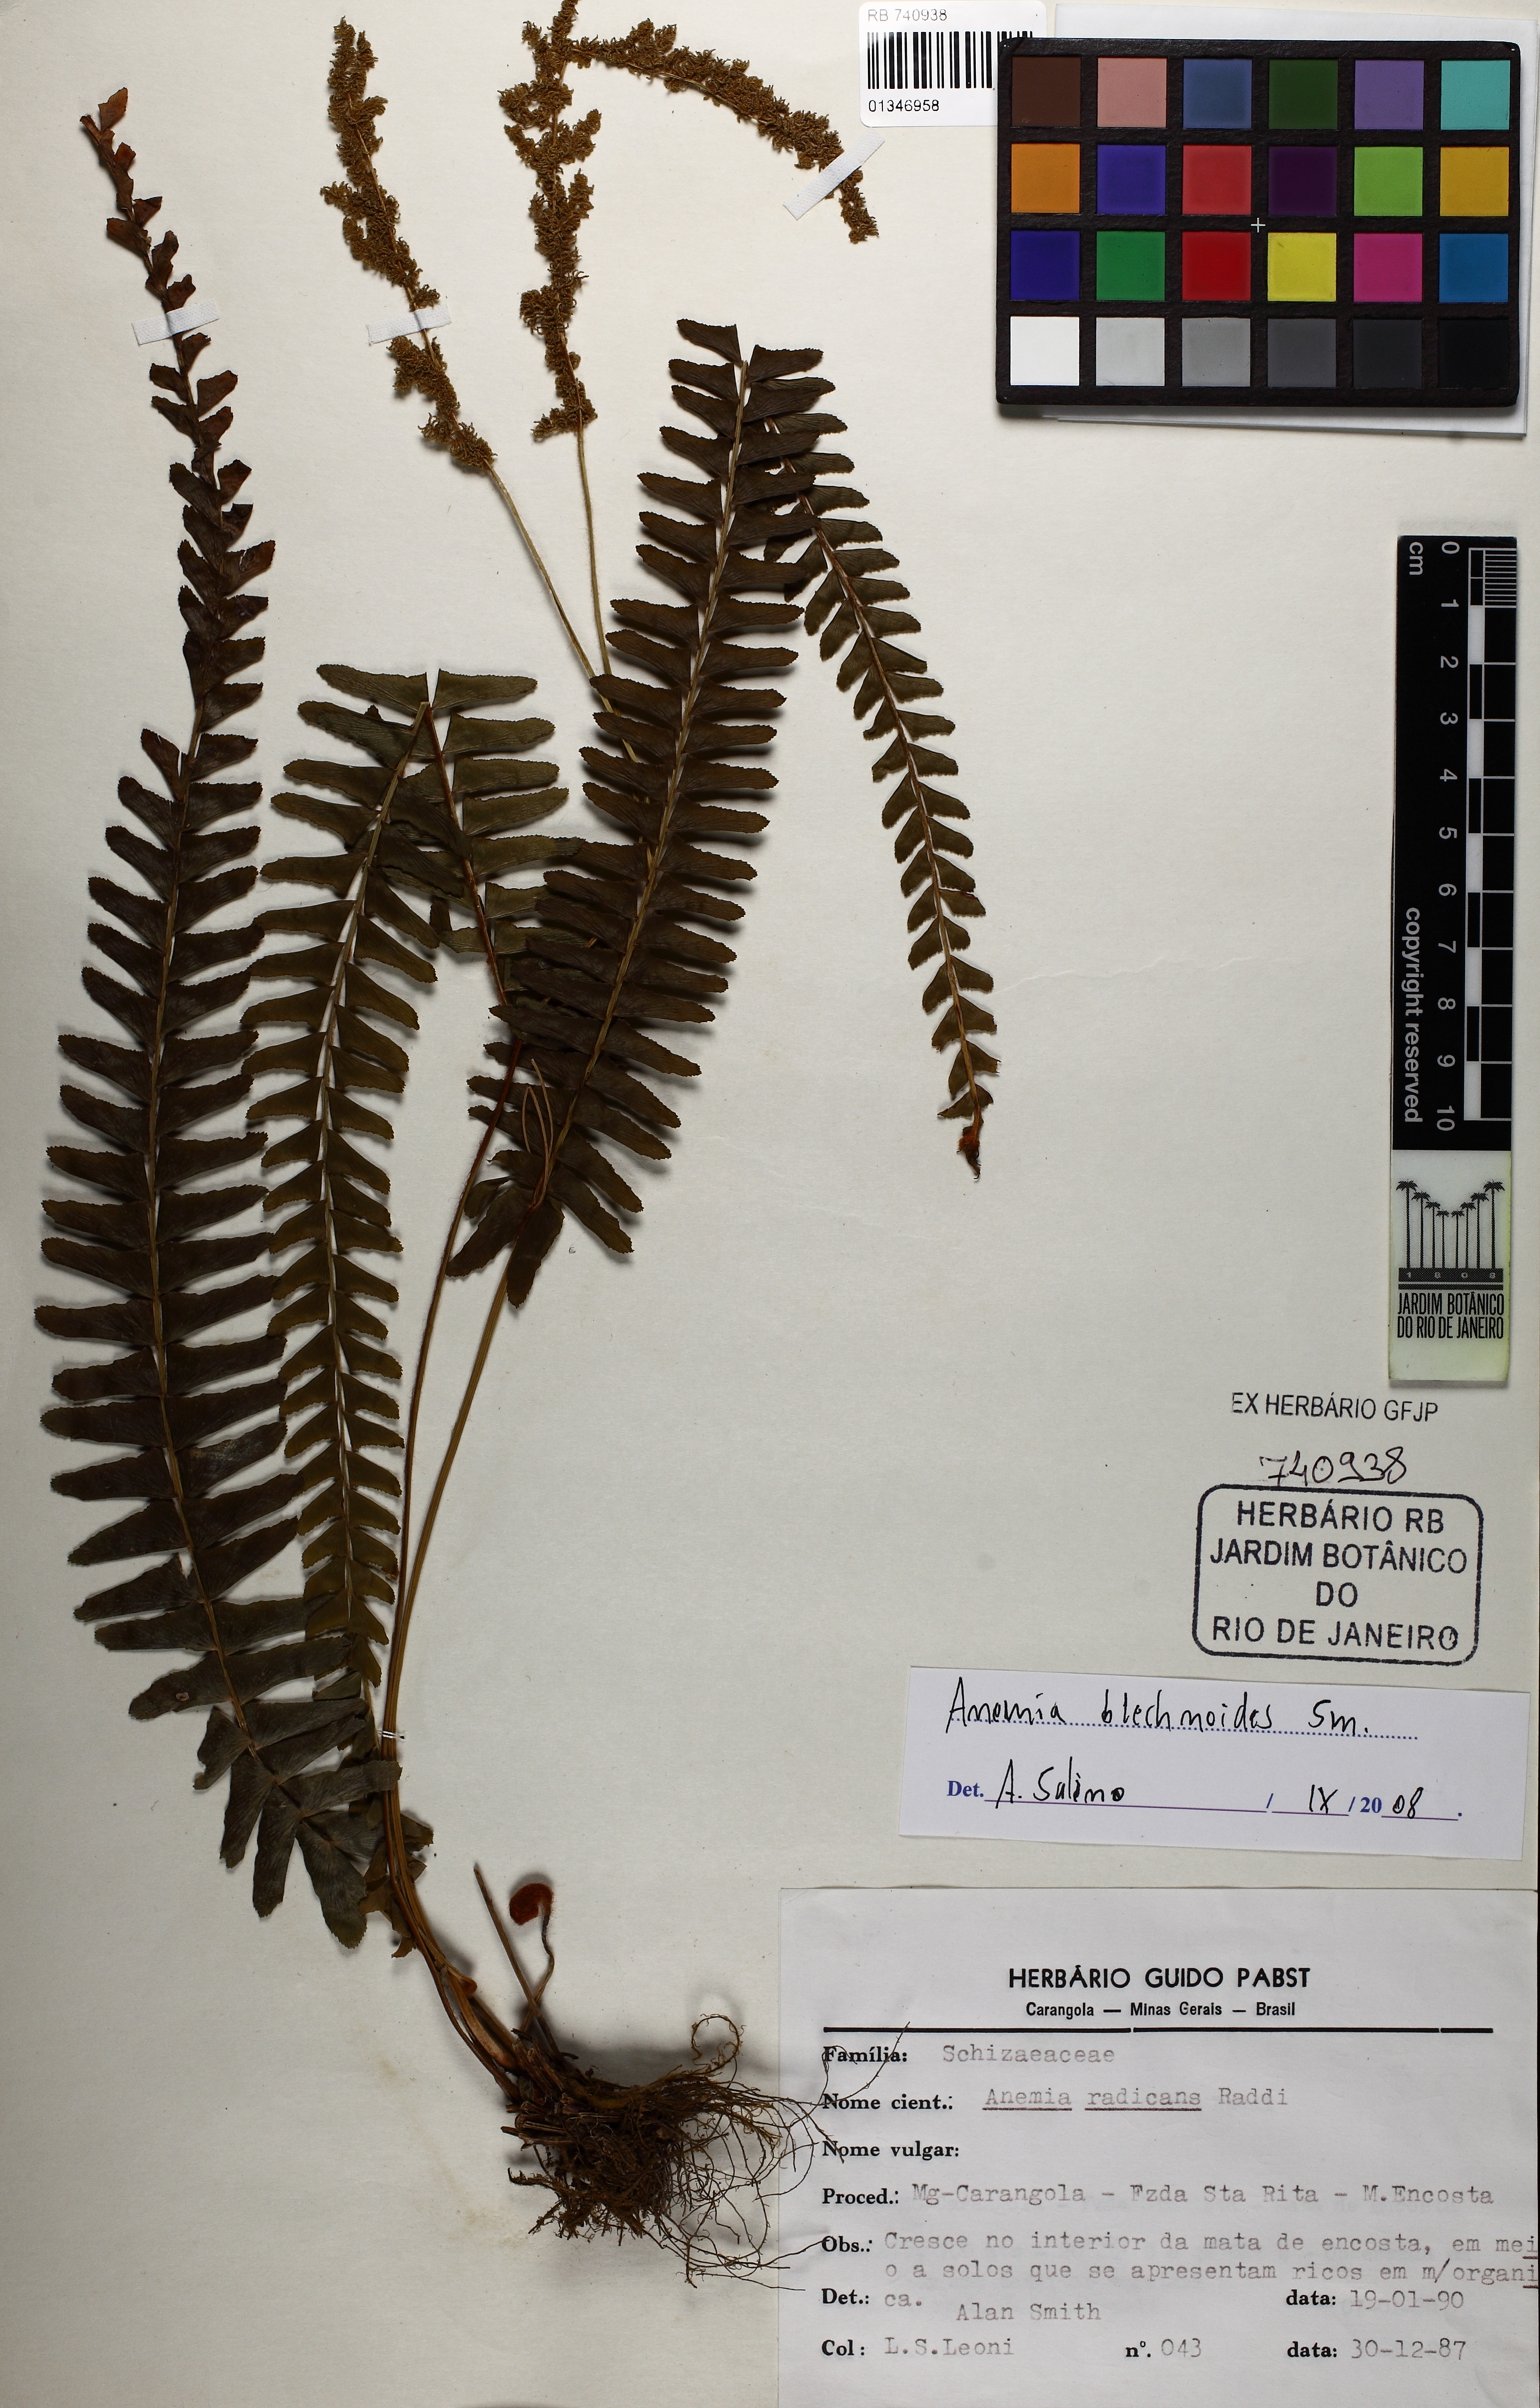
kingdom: Plantae
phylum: Tracheophyta
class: Polypodiopsida
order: Schizaeales
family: Anemiaceae
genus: Anemia
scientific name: Anemia blechnoides
